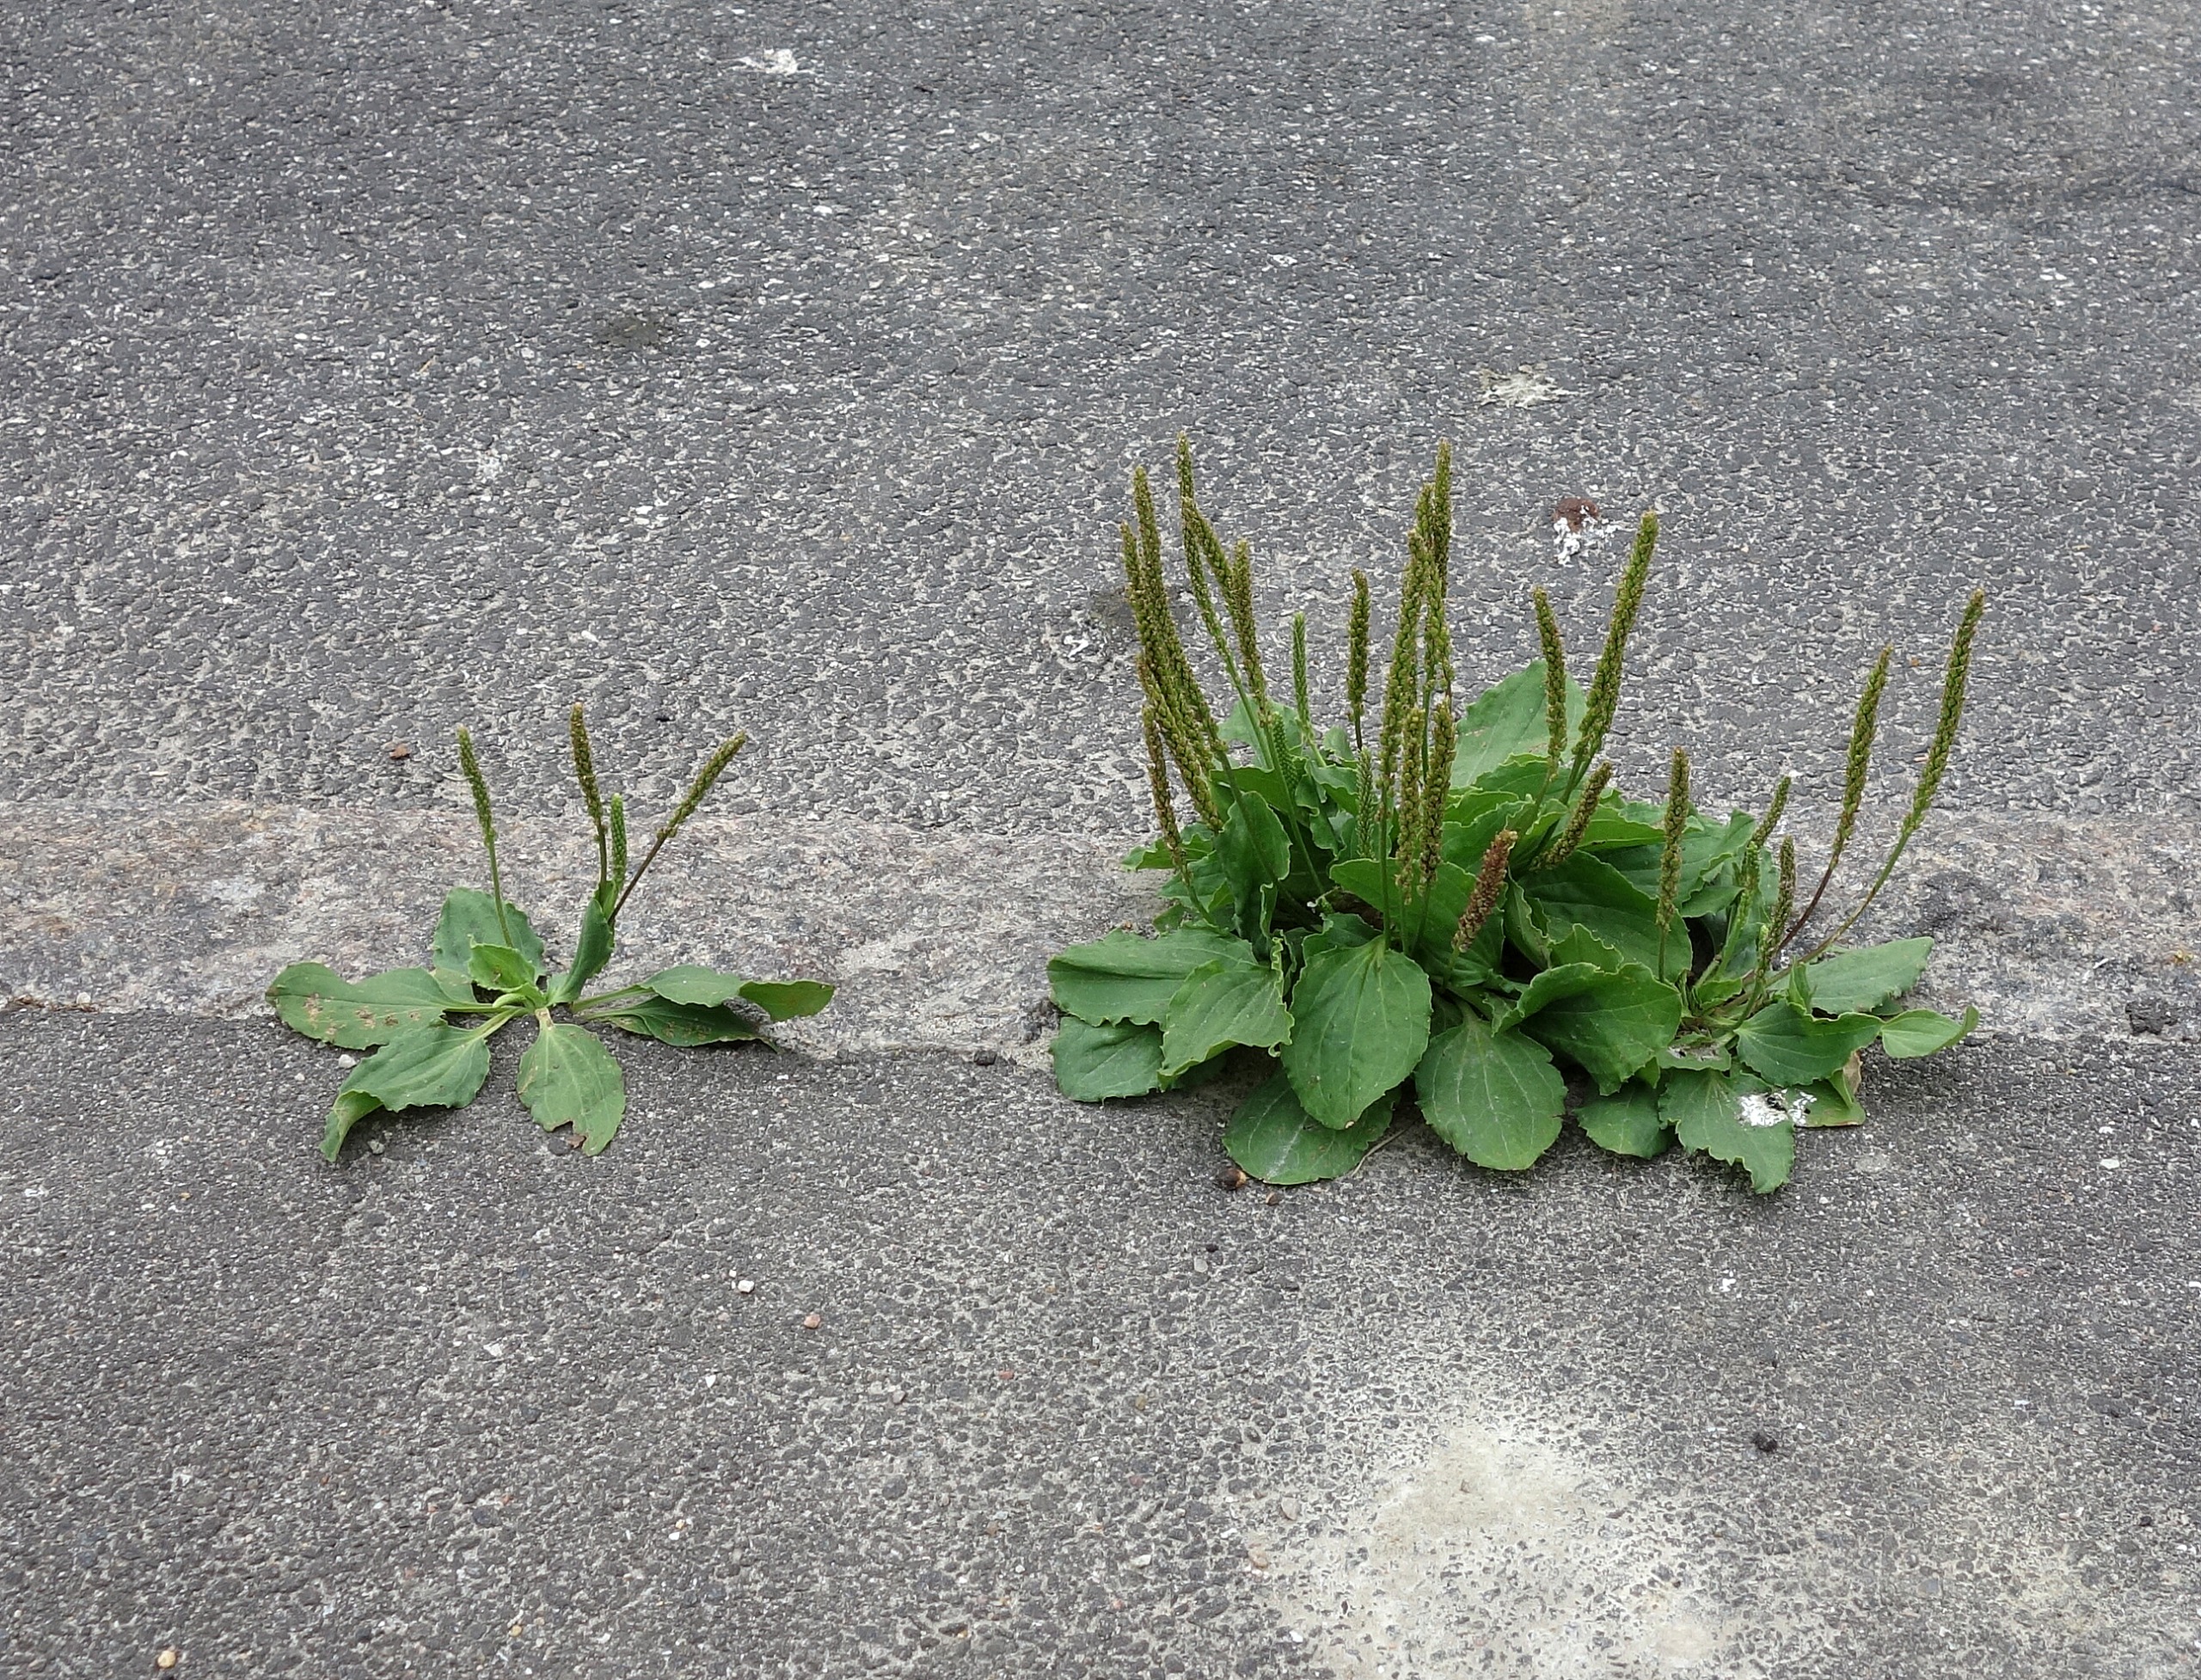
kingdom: Plantae
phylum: Tracheophyta
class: Magnoliopsida
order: Lamiales
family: Plantaginaceae
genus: Plantago
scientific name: Plantago major
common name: Glat vejbred
